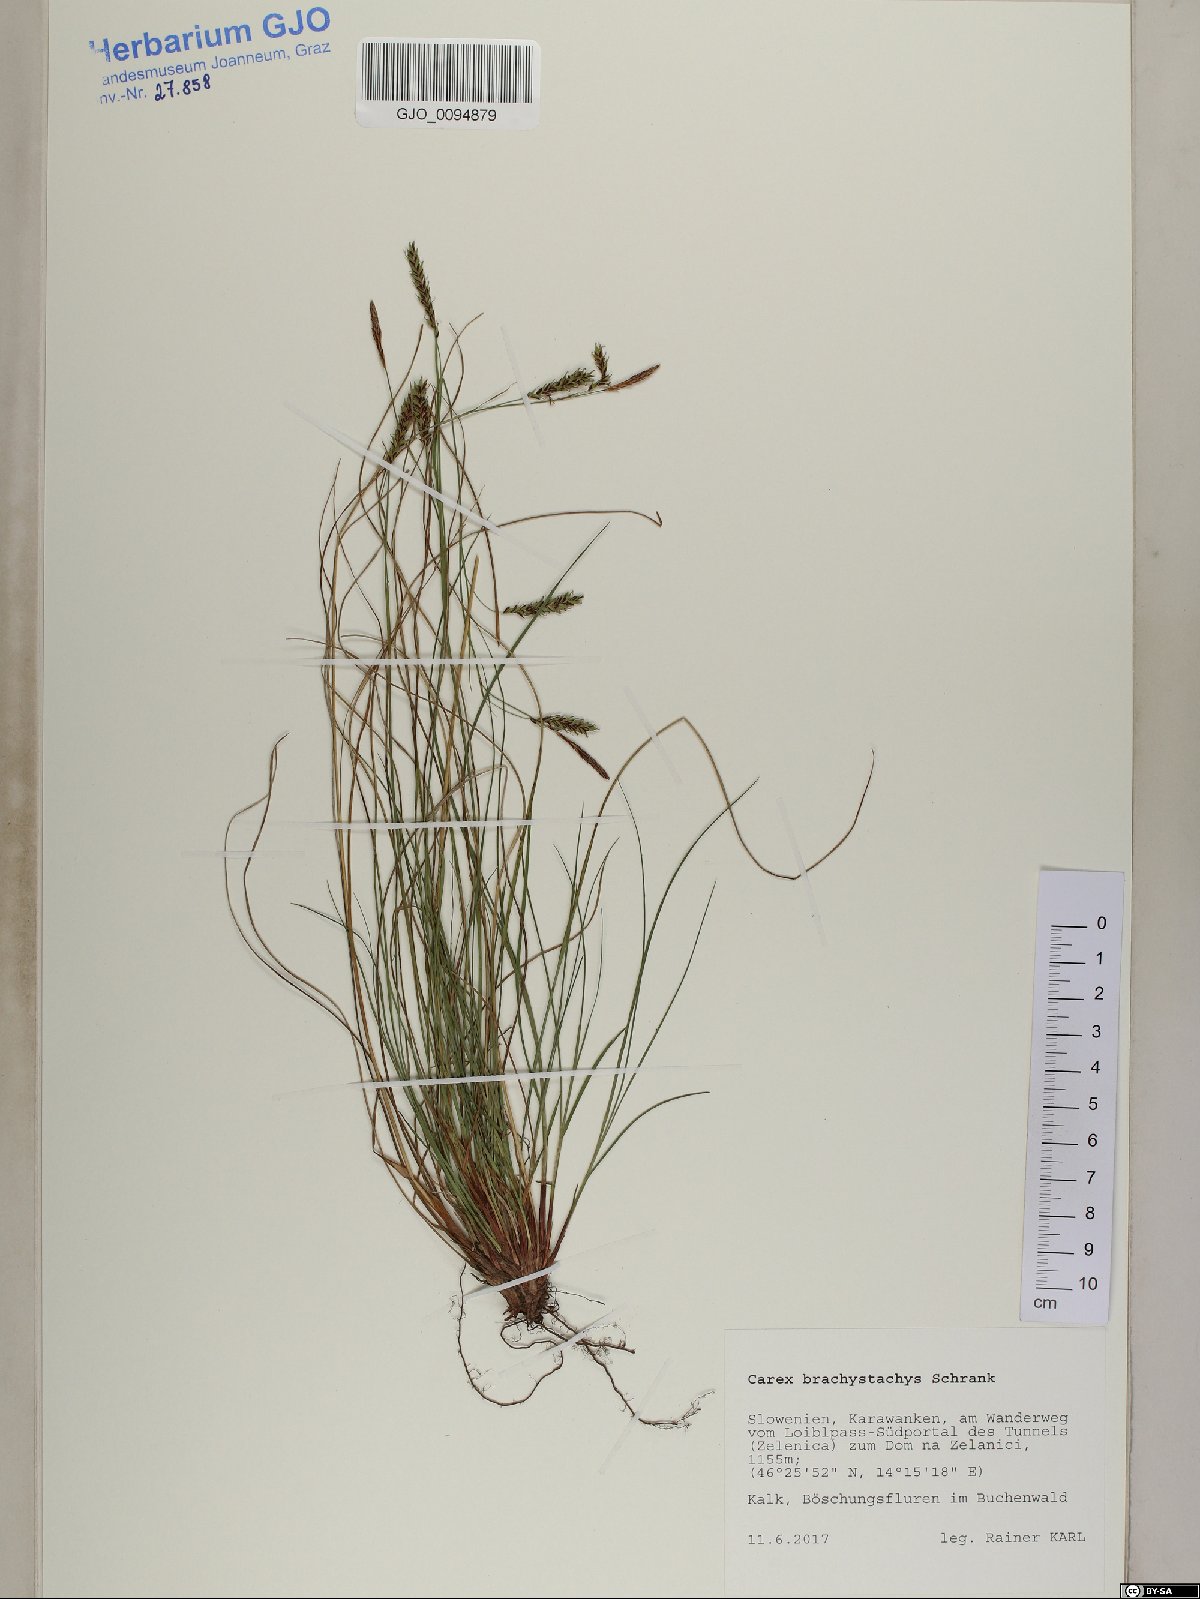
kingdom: Plantae
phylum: Tracheophyta
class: Liliopsida
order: Poales
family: Cyperaceae
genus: Carex
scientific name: Carex brachystachys
